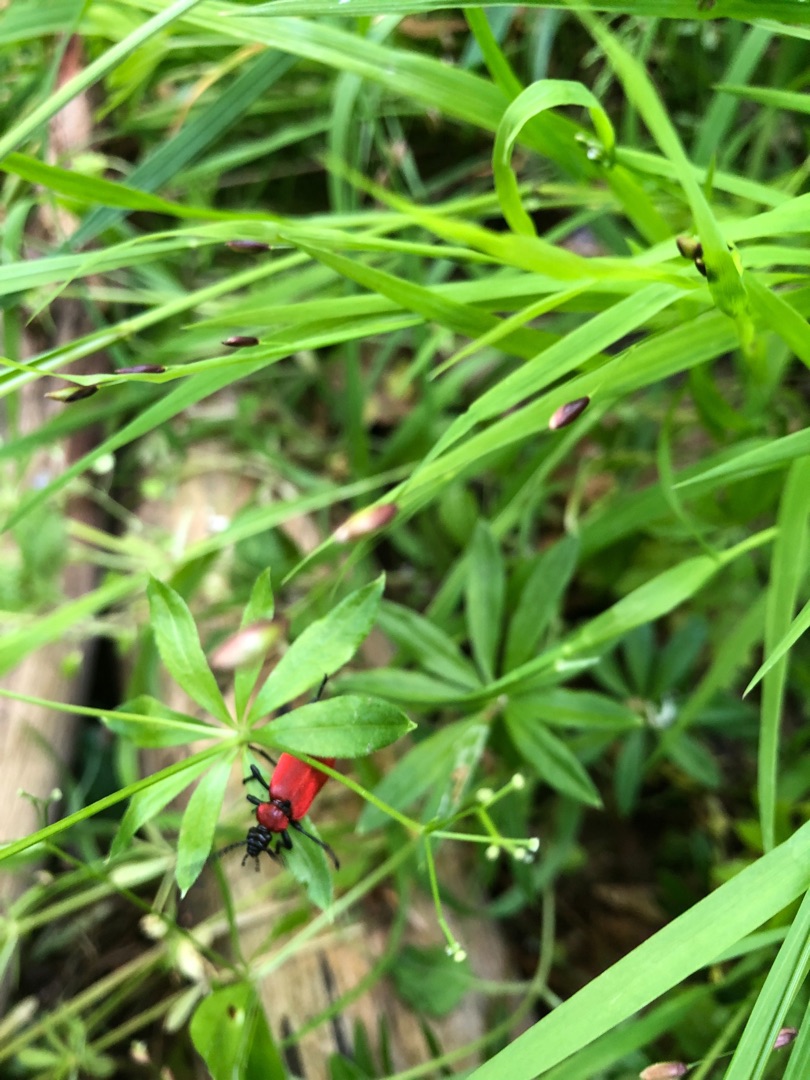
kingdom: Animalia
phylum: Arthropoda
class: Insecta
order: Coleoptera
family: Pyrochroidae
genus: Pyrochroa
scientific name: Pyrochroa coccinea
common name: Sorthovedet kardinalbille
